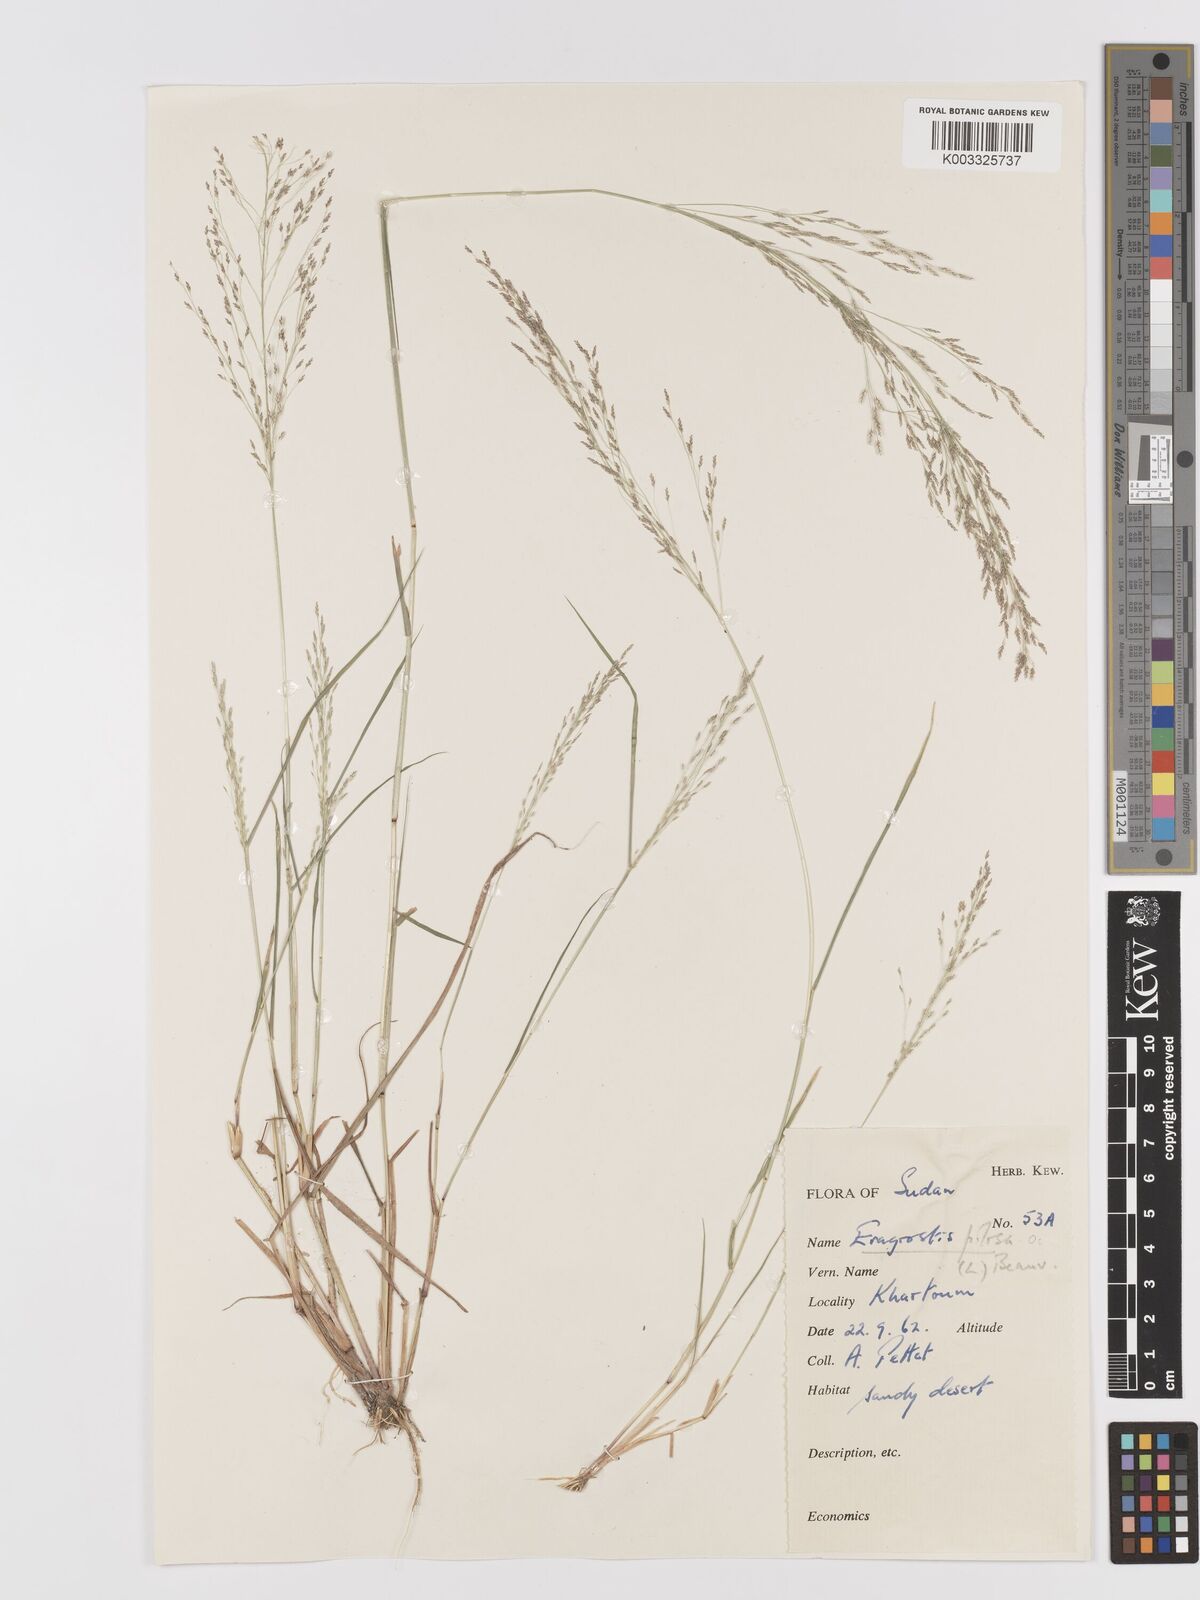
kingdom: Plantae
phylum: Tracheophyta
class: Liliopsida
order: Poales
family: Poaceae
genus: Eragrostis
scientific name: Eragrostis pilosa
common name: Indian lovegrass
